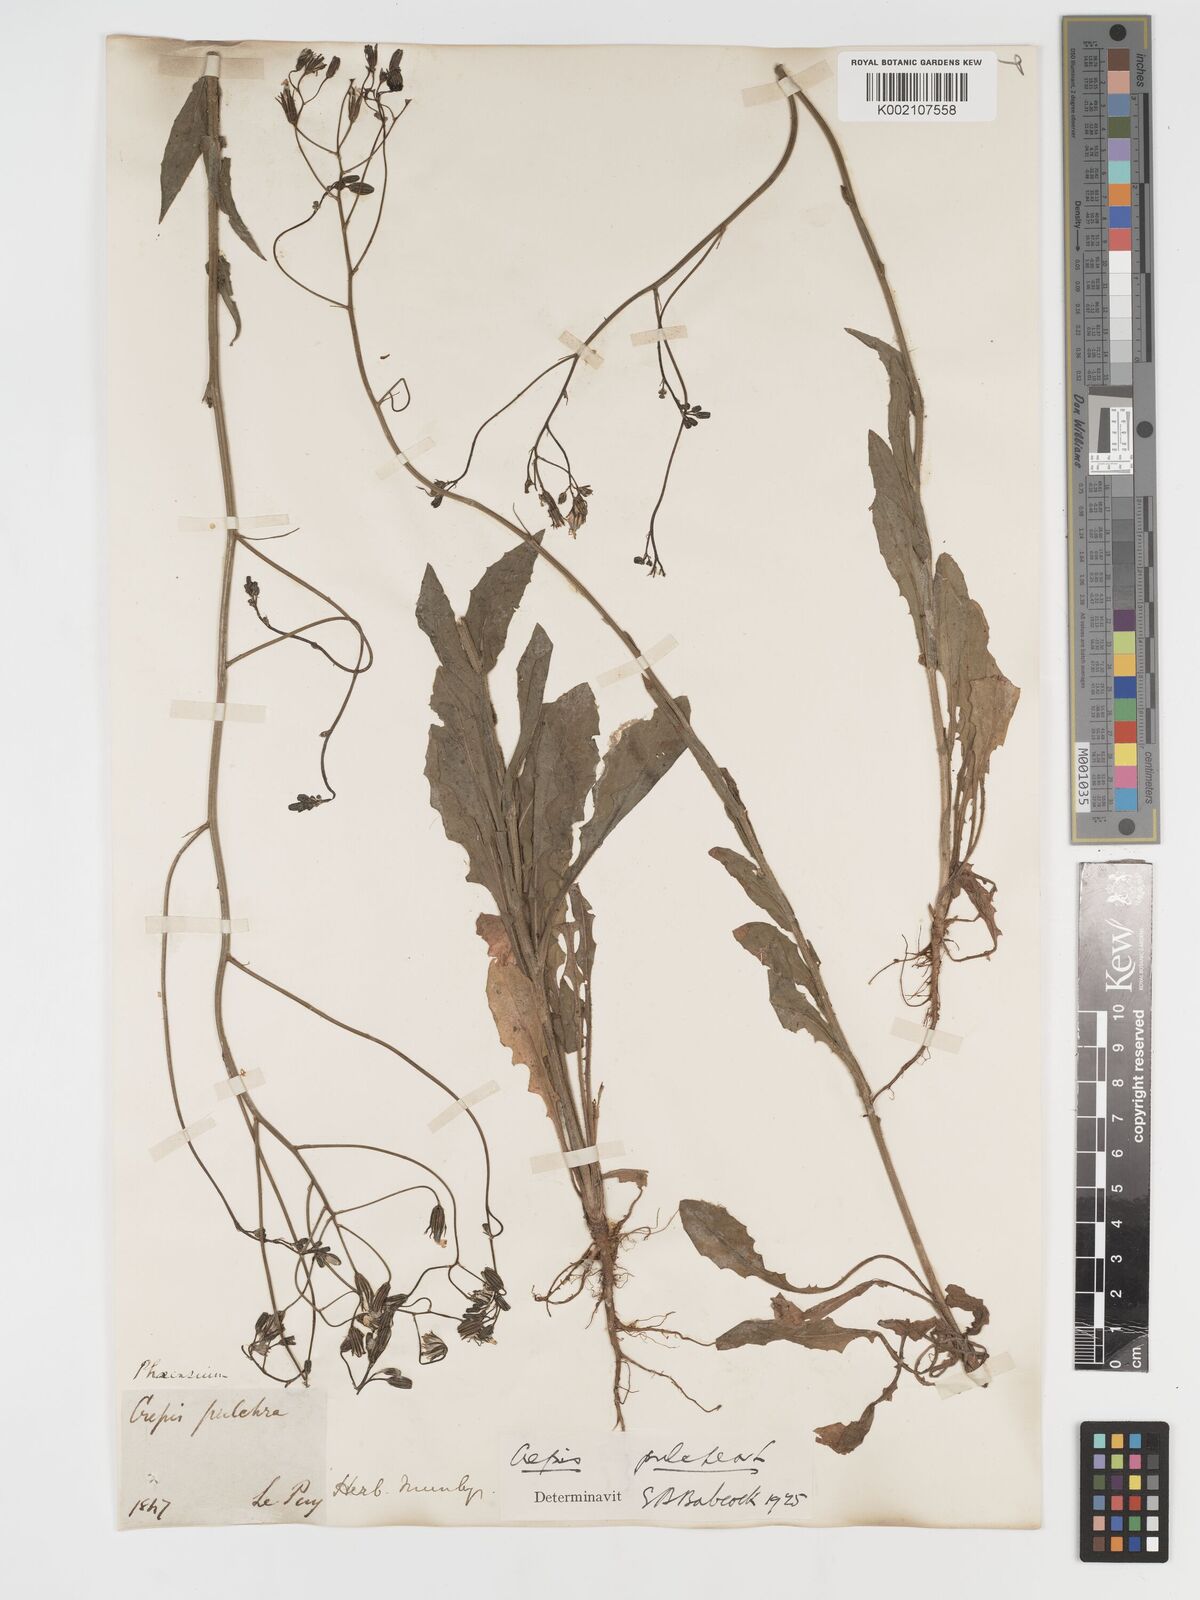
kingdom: Plantae
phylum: Tracheophyta
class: Magnoliopsida
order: Asterales
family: Asteraceae
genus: Crepis
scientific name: Crepis pulchra
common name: Hawk's-beard
